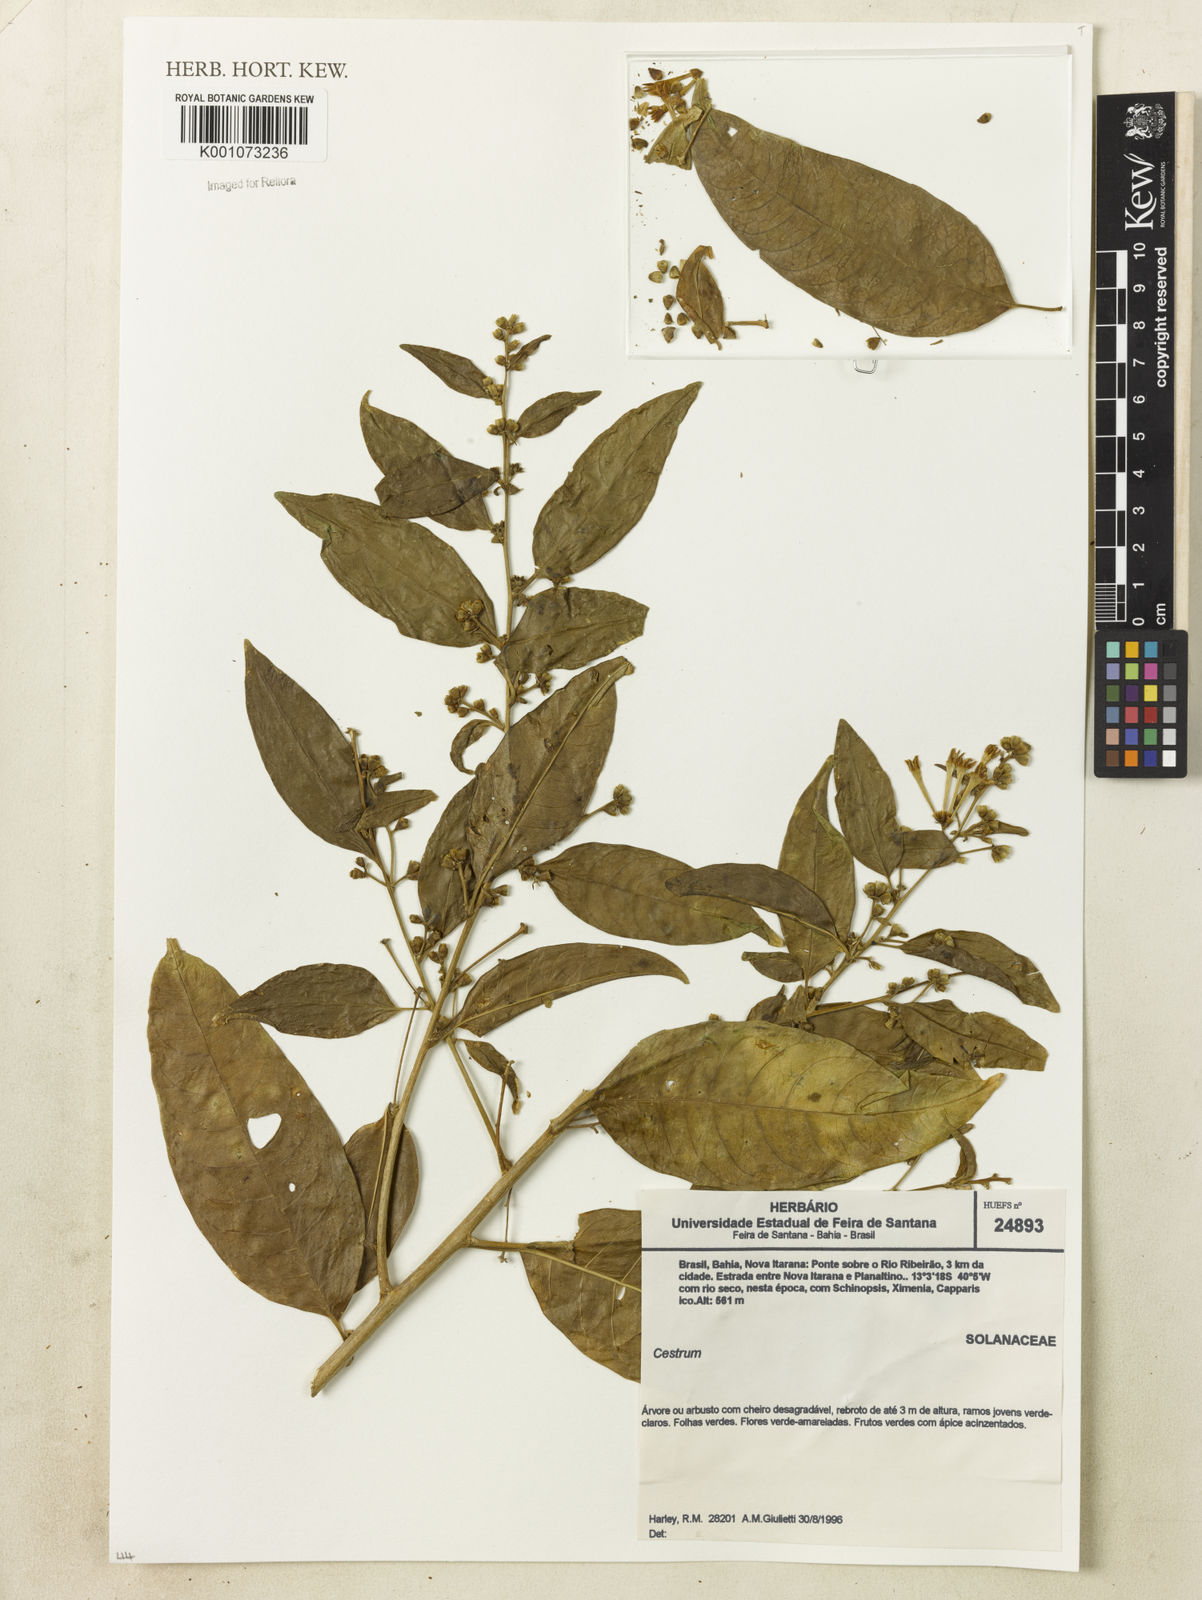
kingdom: Plantae
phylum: Tracheophyta
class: Magnoliopsida
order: Solanales
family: Solanaceae
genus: Cestrum
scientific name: Cestrum
